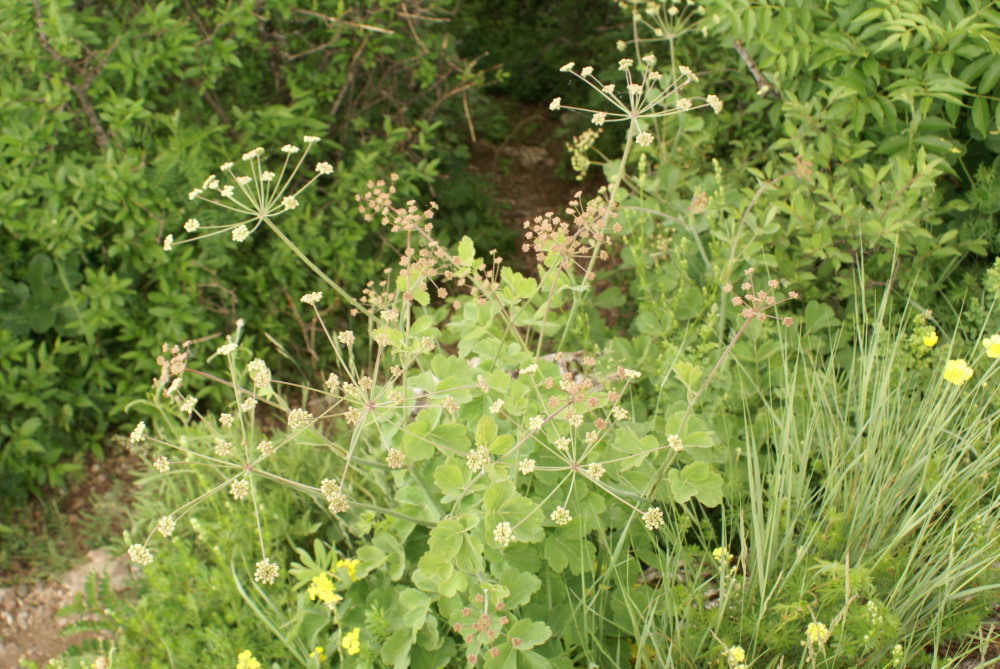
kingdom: Plantae
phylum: Tracheophyta
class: Magnoliopsida
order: Apiales
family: Apiaceae
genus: Laser
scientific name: Laser trilobum
